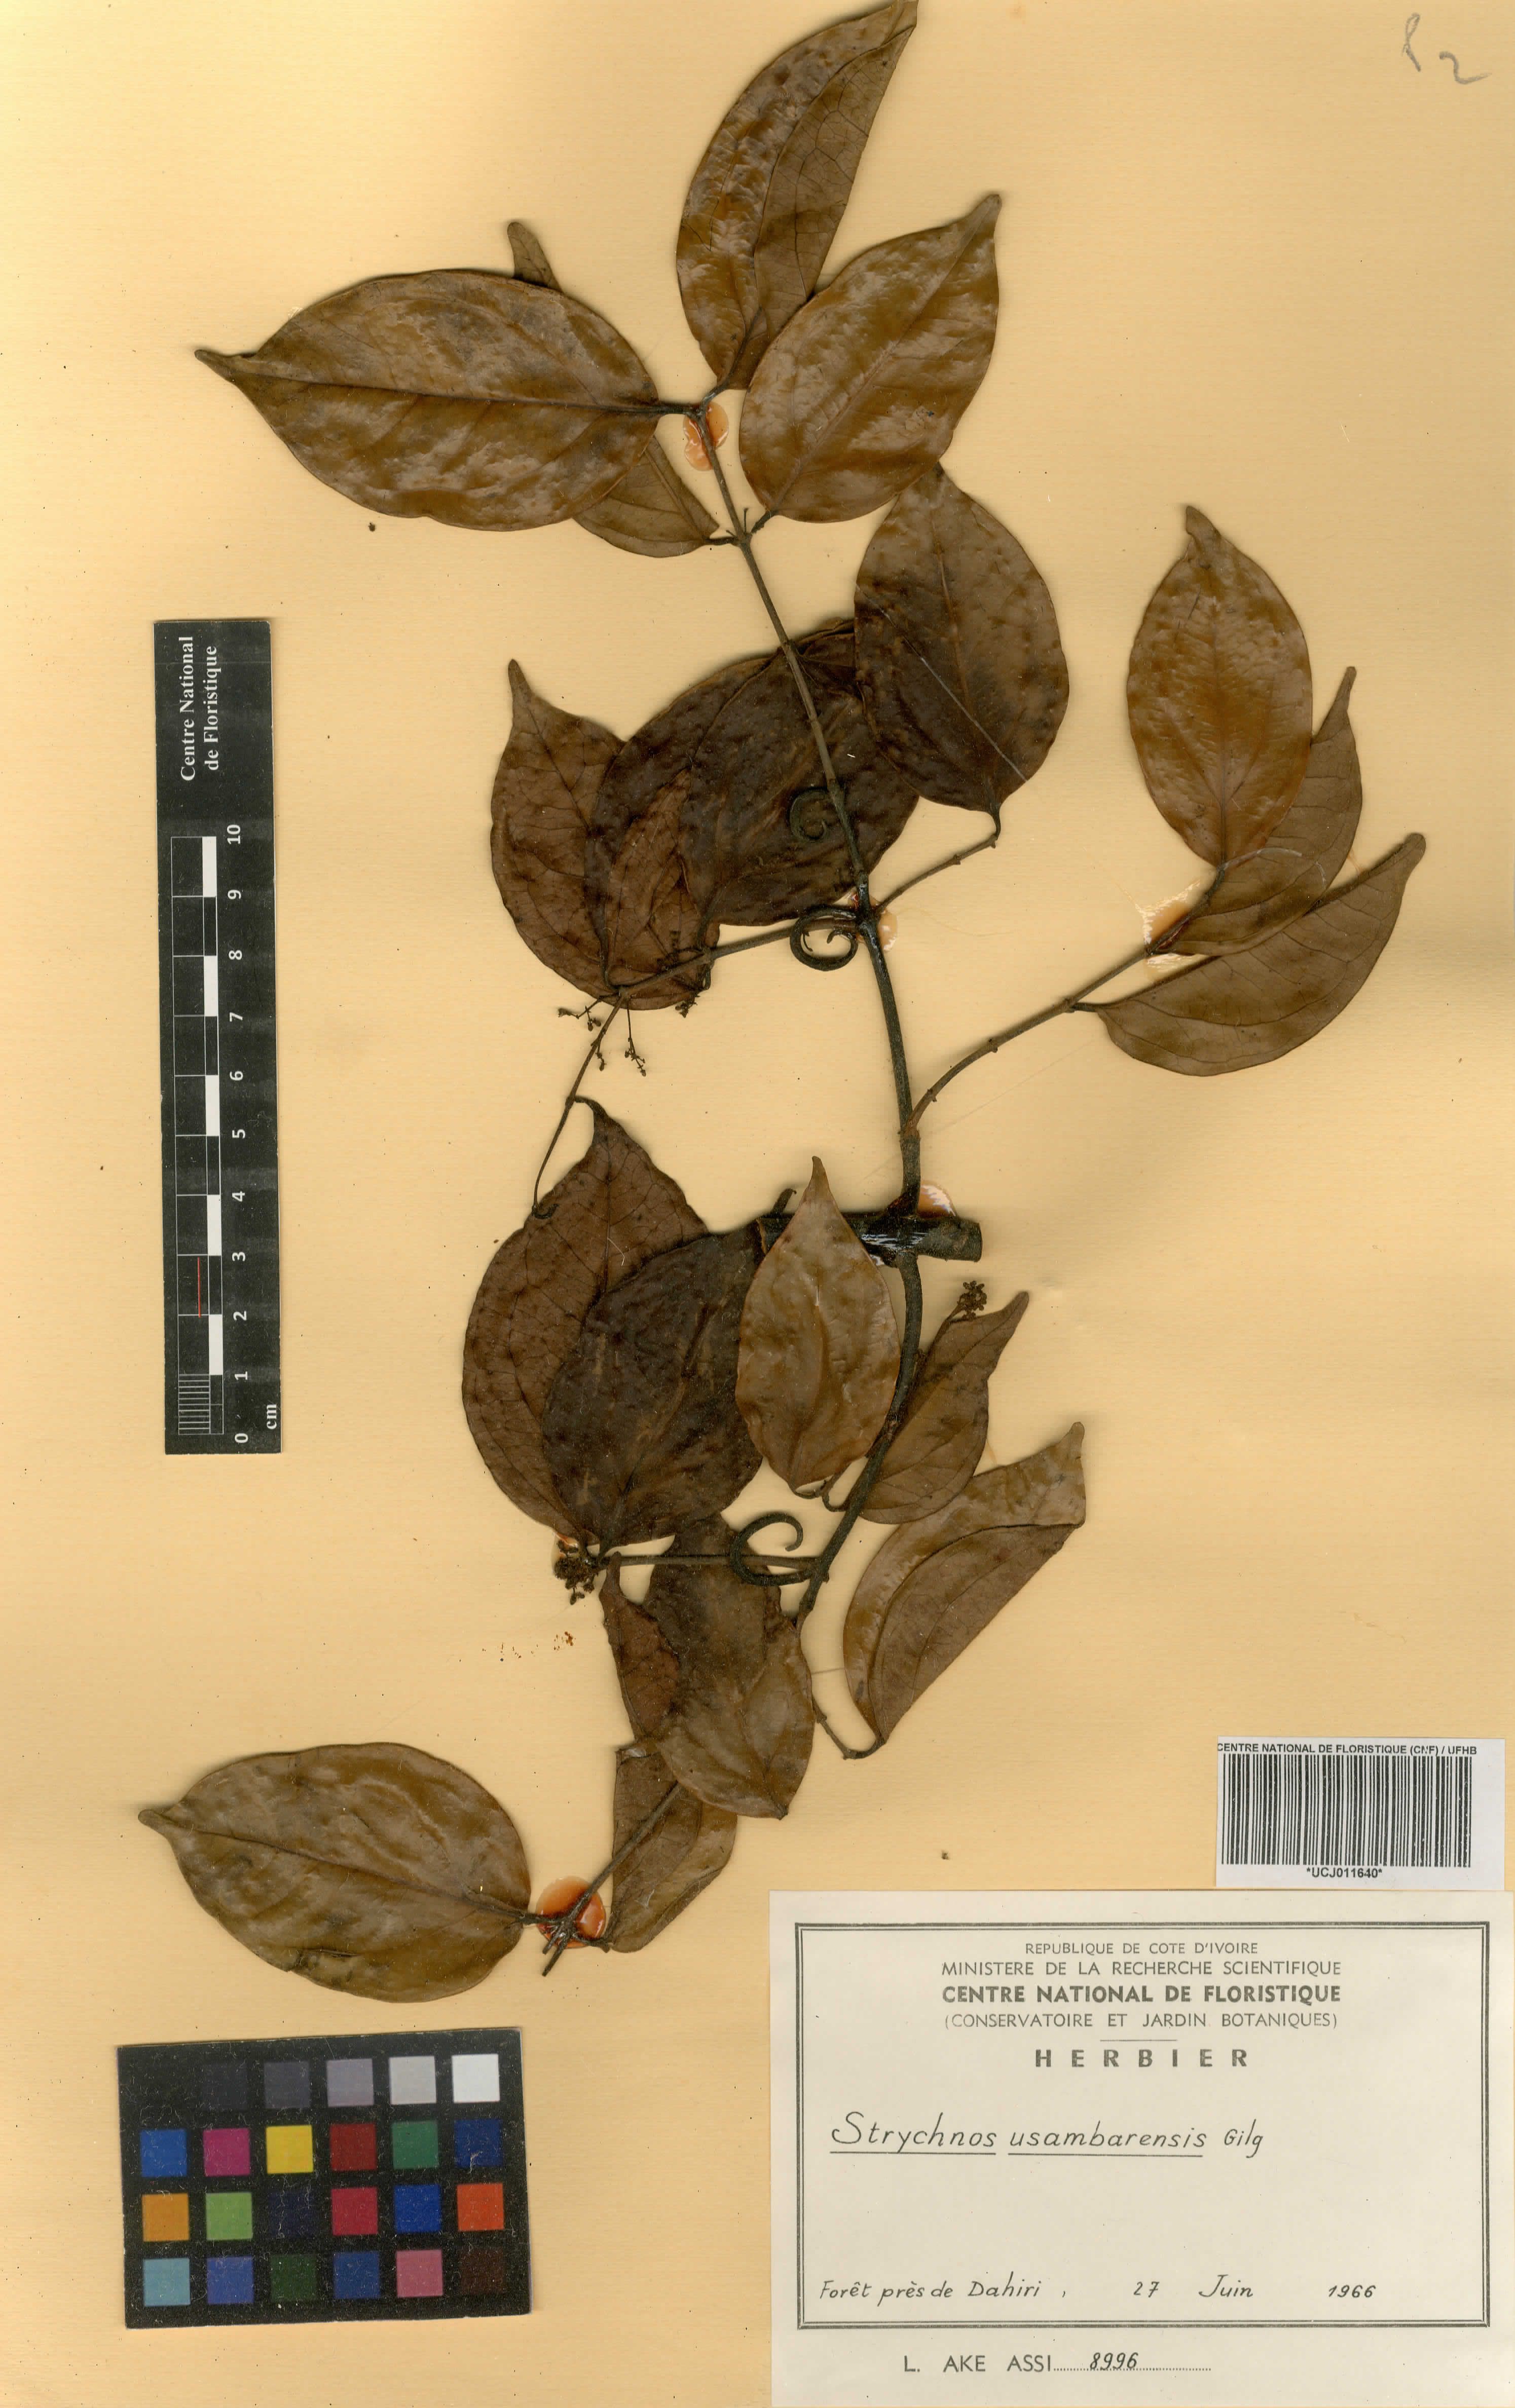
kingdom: Plantae
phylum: Tracheophyta
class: Magnoliopsida
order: Gentianales
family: Loganiaceae
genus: Strychnos
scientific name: Strychnos usambarensis
